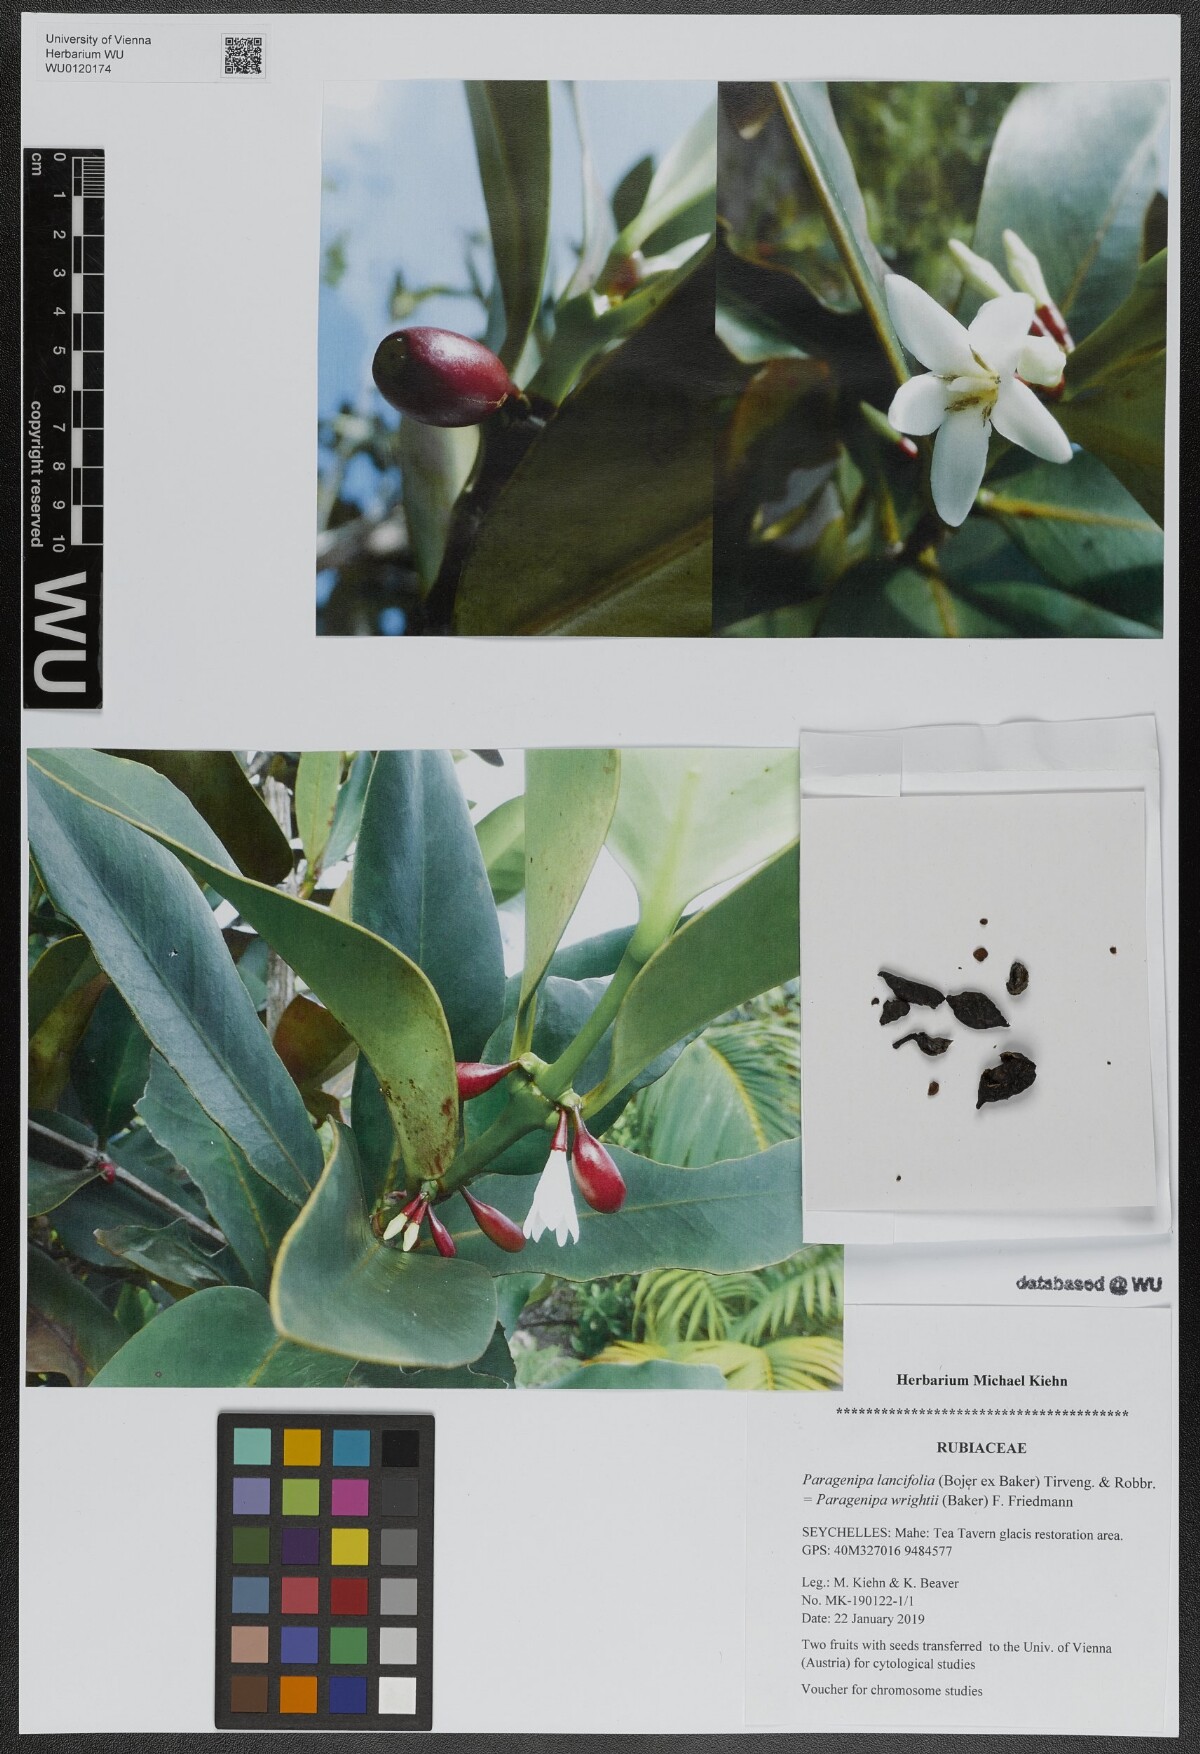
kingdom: Plantae
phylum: Tracheophyta
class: Magnoliopsida
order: Gentianales
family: Rubiaceae
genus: Paragenipa
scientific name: Paragenipa lancifolia
